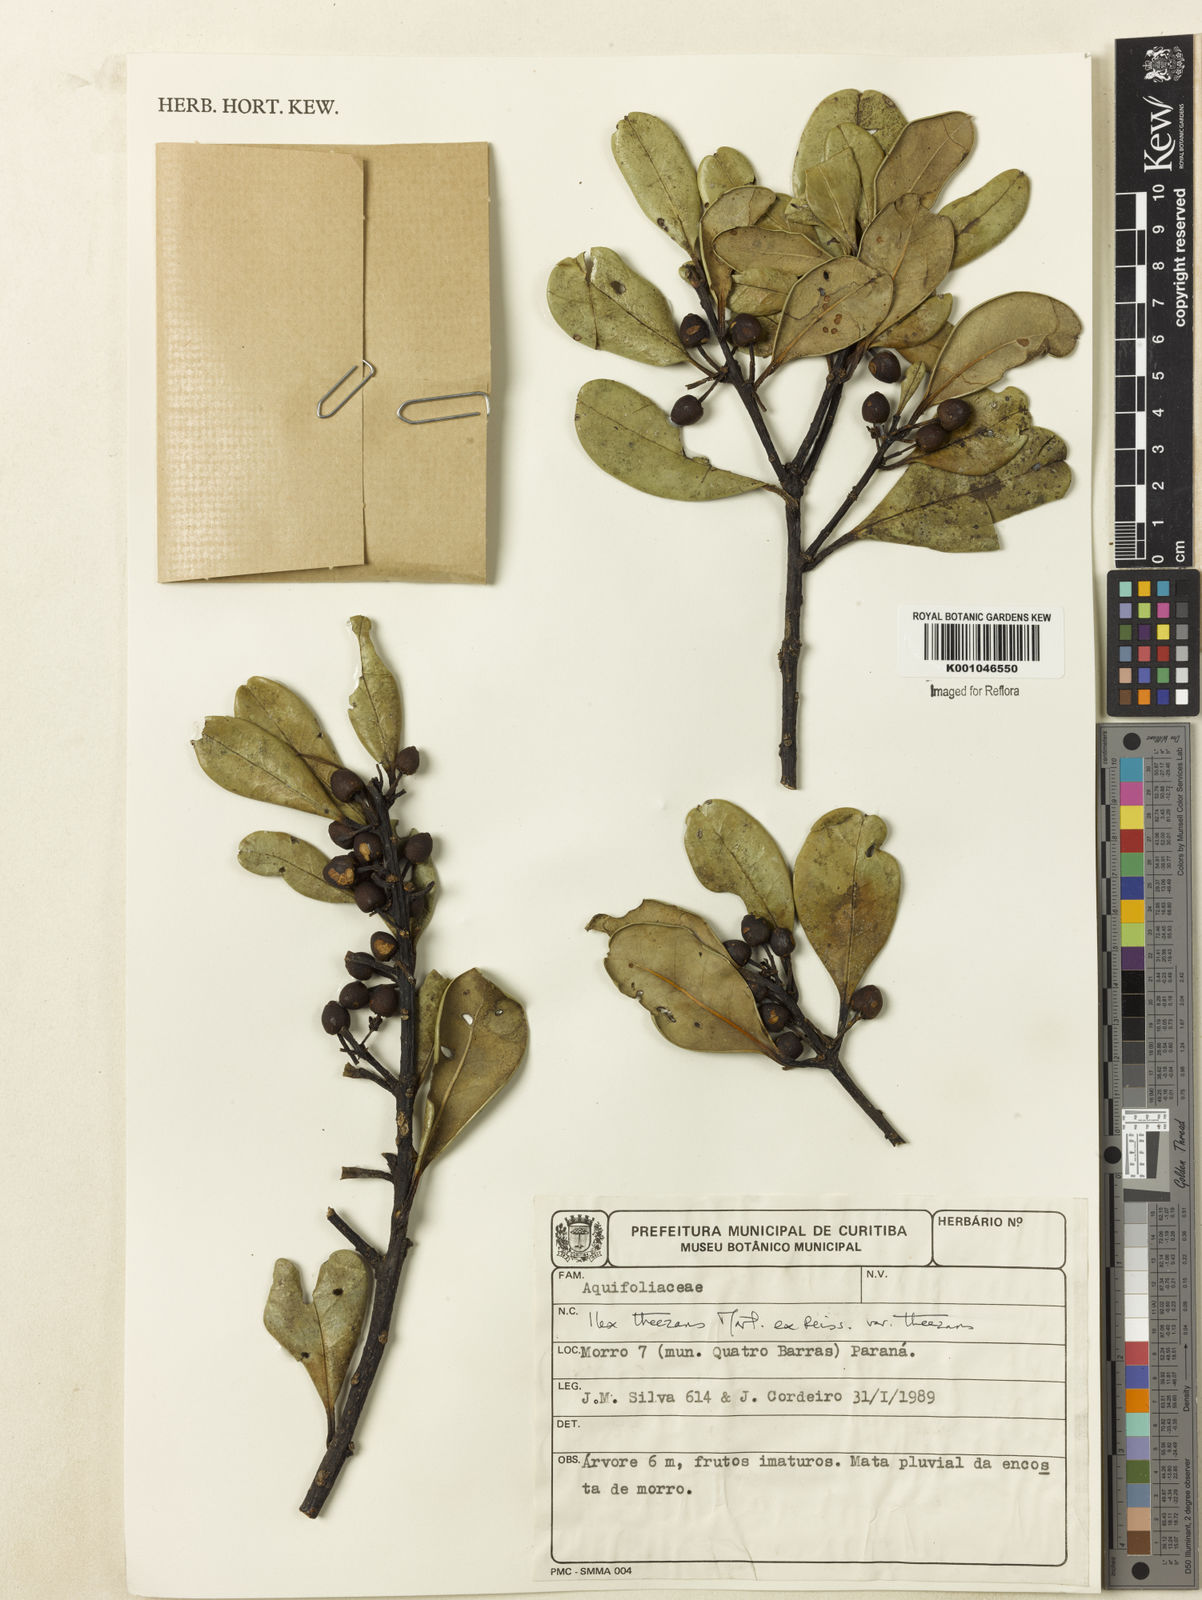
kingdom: Plantae
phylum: Tracheophyta
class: Magnoliopsida
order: Aquifoliales
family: Aquifoliaceae
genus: Ilex
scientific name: Ilex theezans
